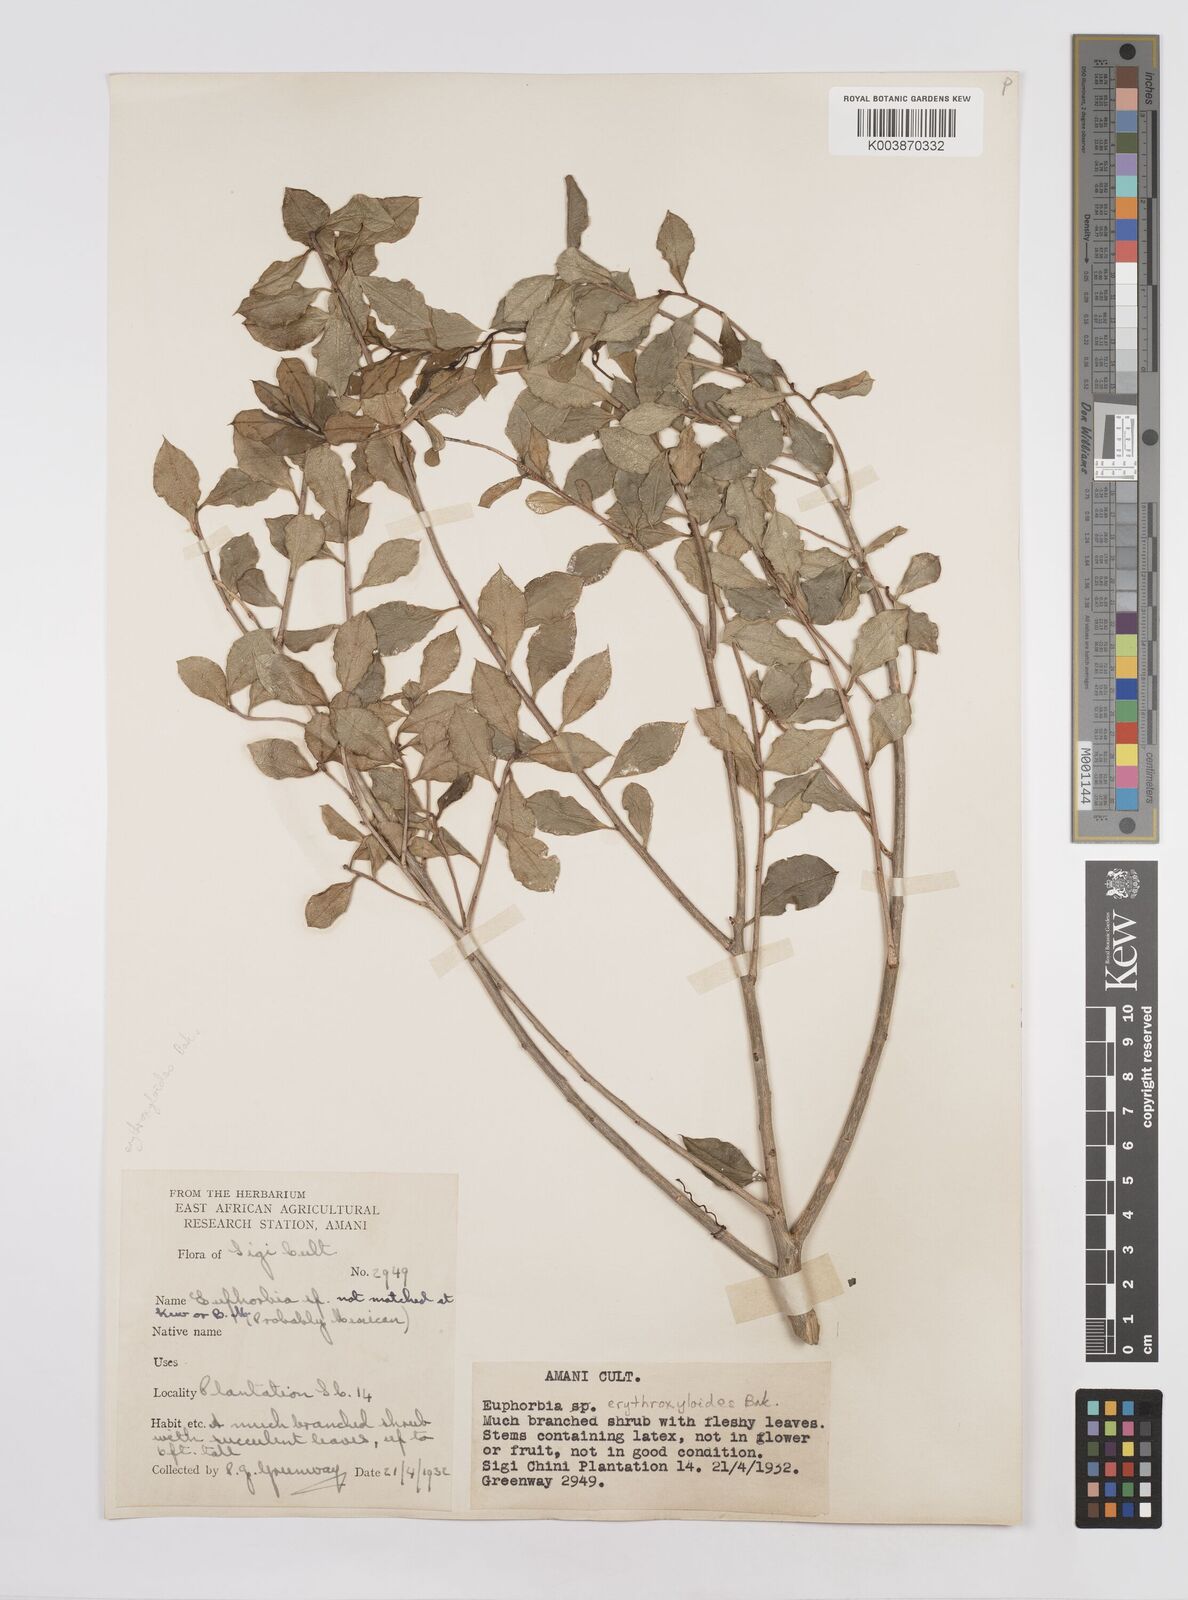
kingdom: Plantae
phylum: Tracheophyta
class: Magnoliopsida
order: Malpighiales
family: Euphorbiaceae
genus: Euphorbia
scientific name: Euphorbia erythroxyloides
